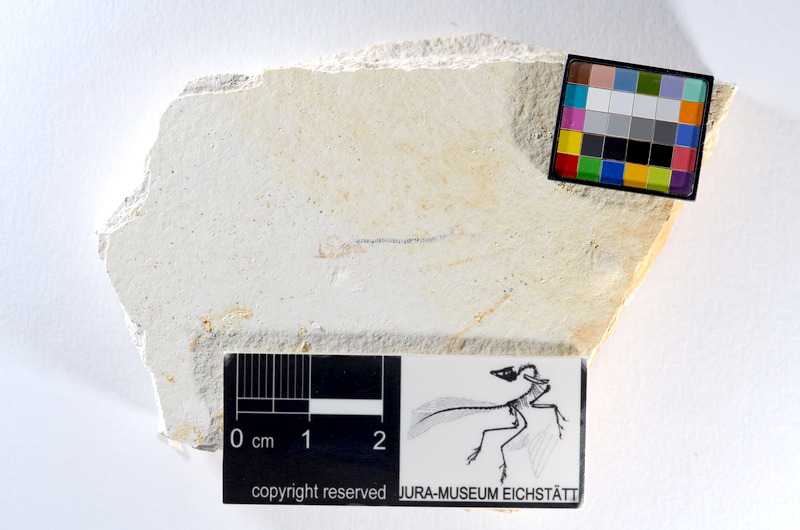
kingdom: Animalia
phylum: Chordata
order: Salmoniformes
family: Orthogonikleithridae
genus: Orthogonikleithrus
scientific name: Orthogonikleithrus hoelli
